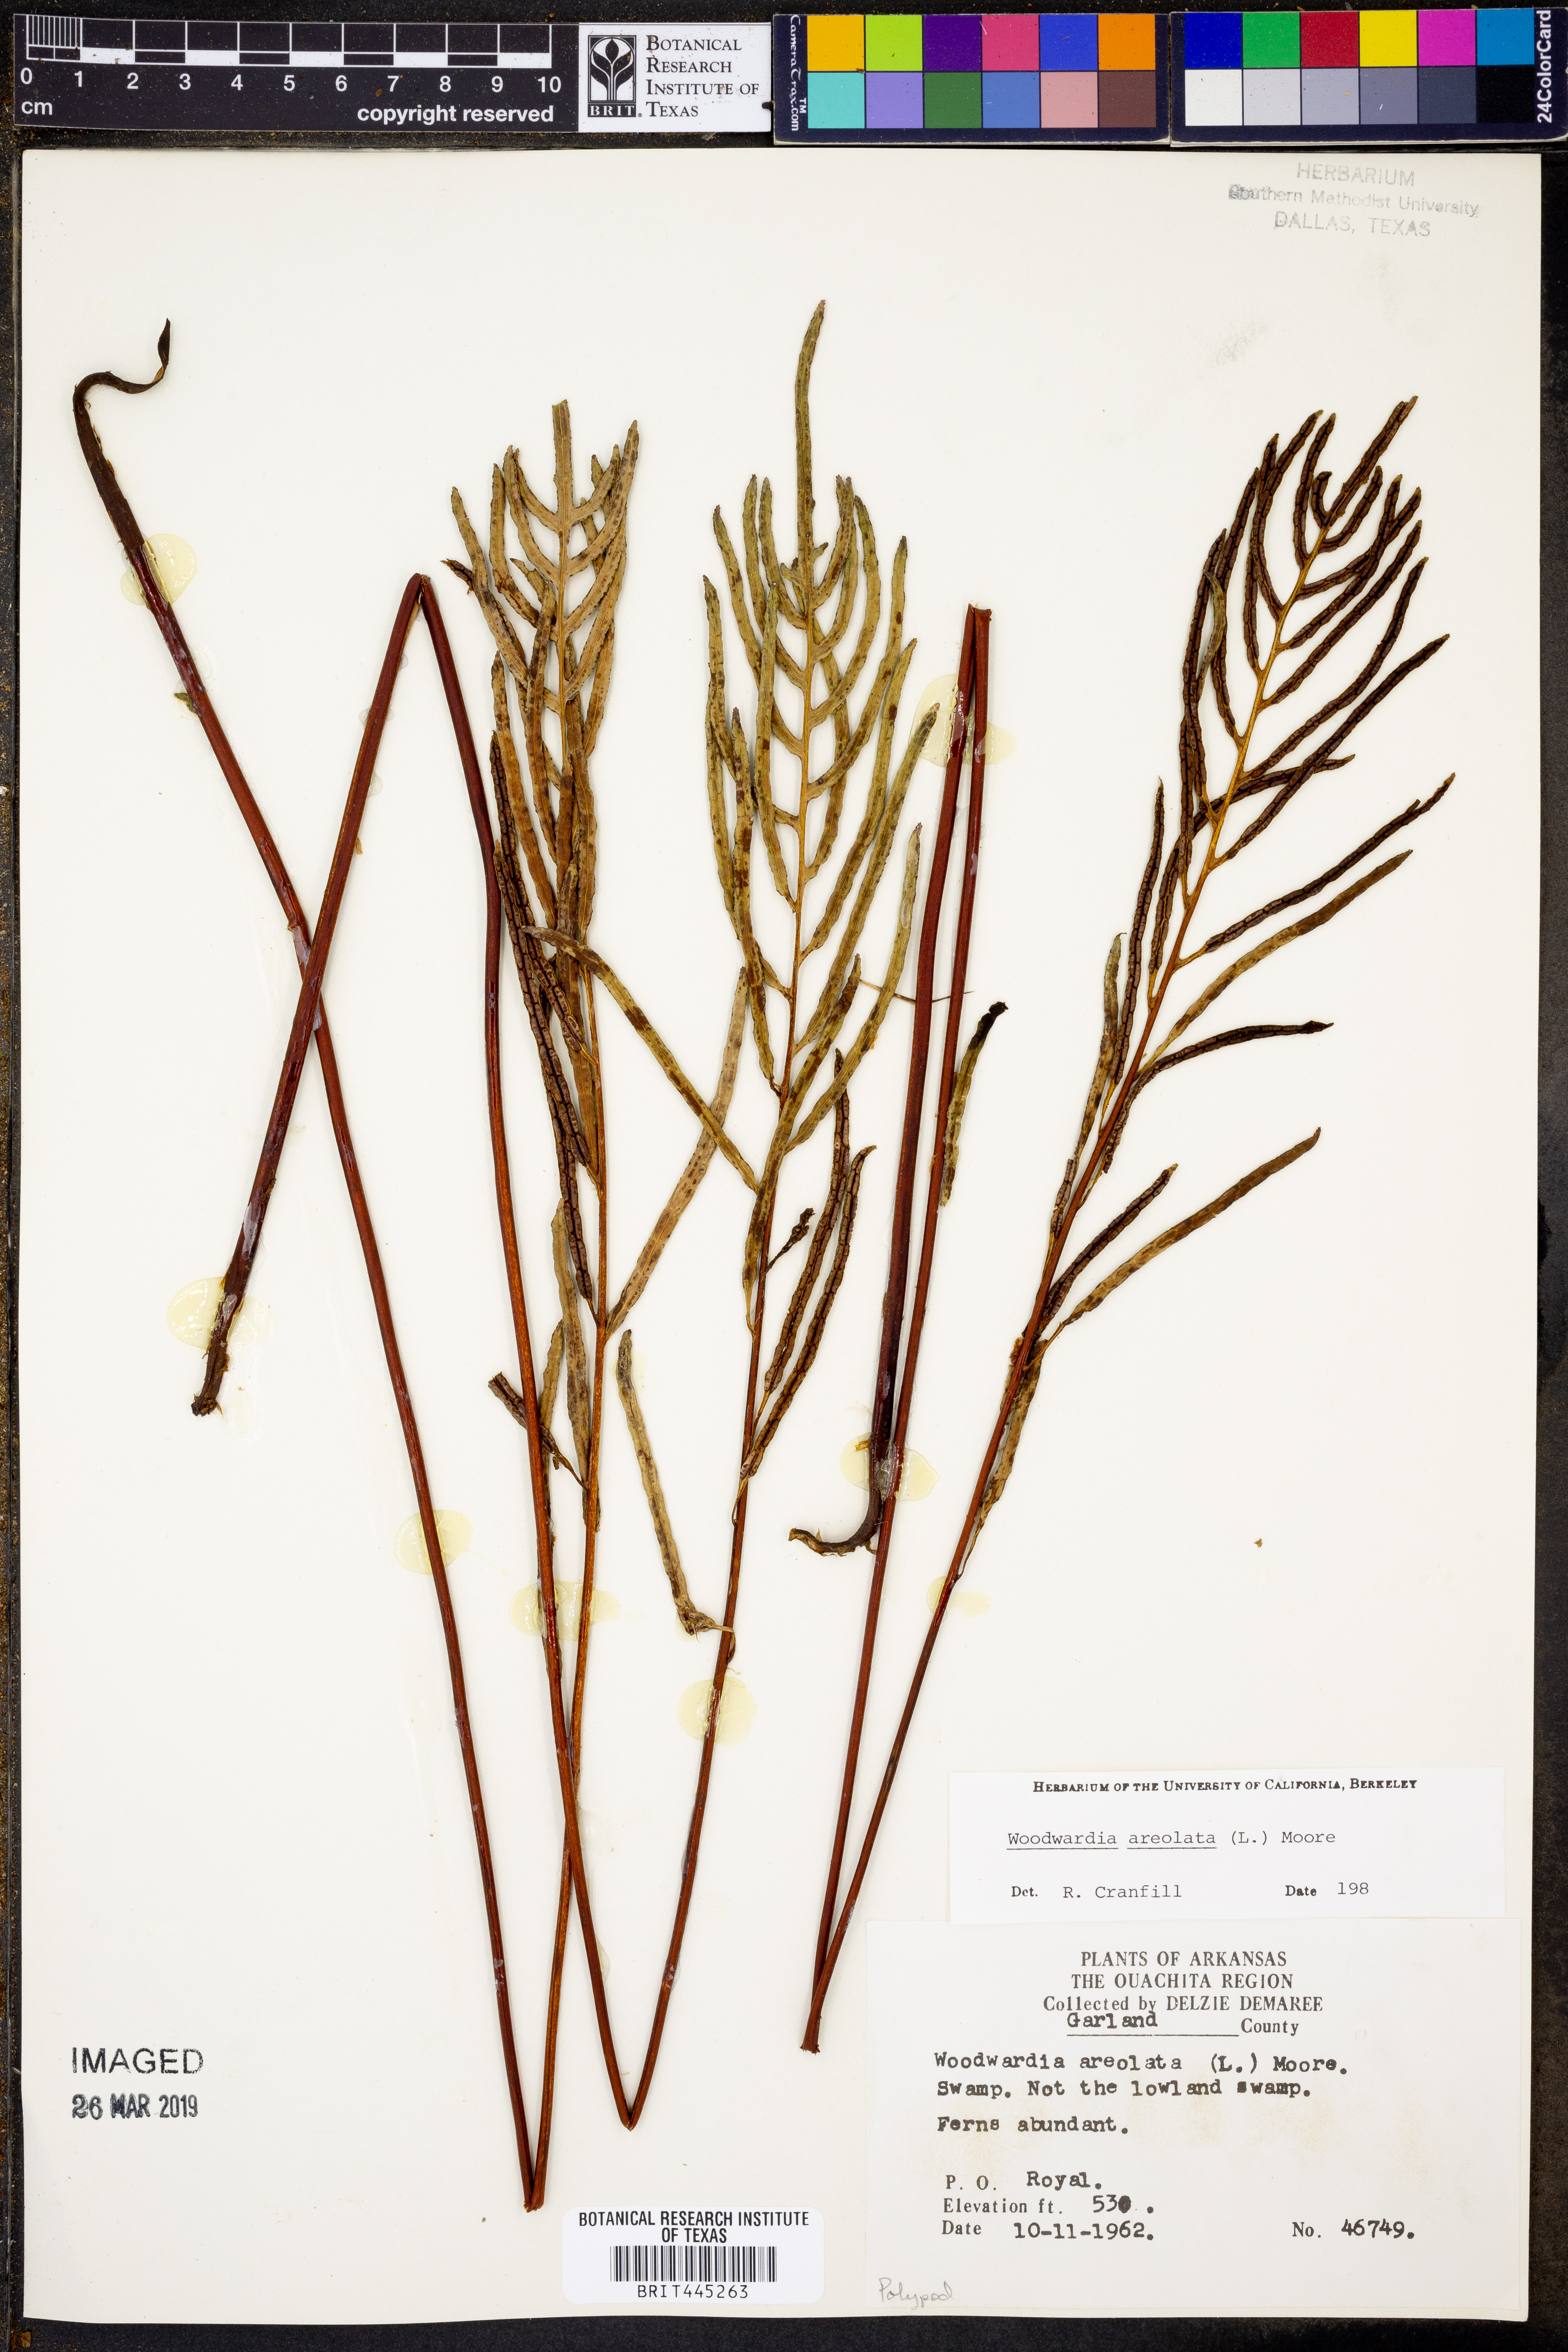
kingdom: Plantae
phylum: Tracheophyta
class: Polypodiopsida
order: Polypodiales
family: Blechnaceae
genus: Lorinseria
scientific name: Lorinseria areolata
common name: Dwarf chain fern
